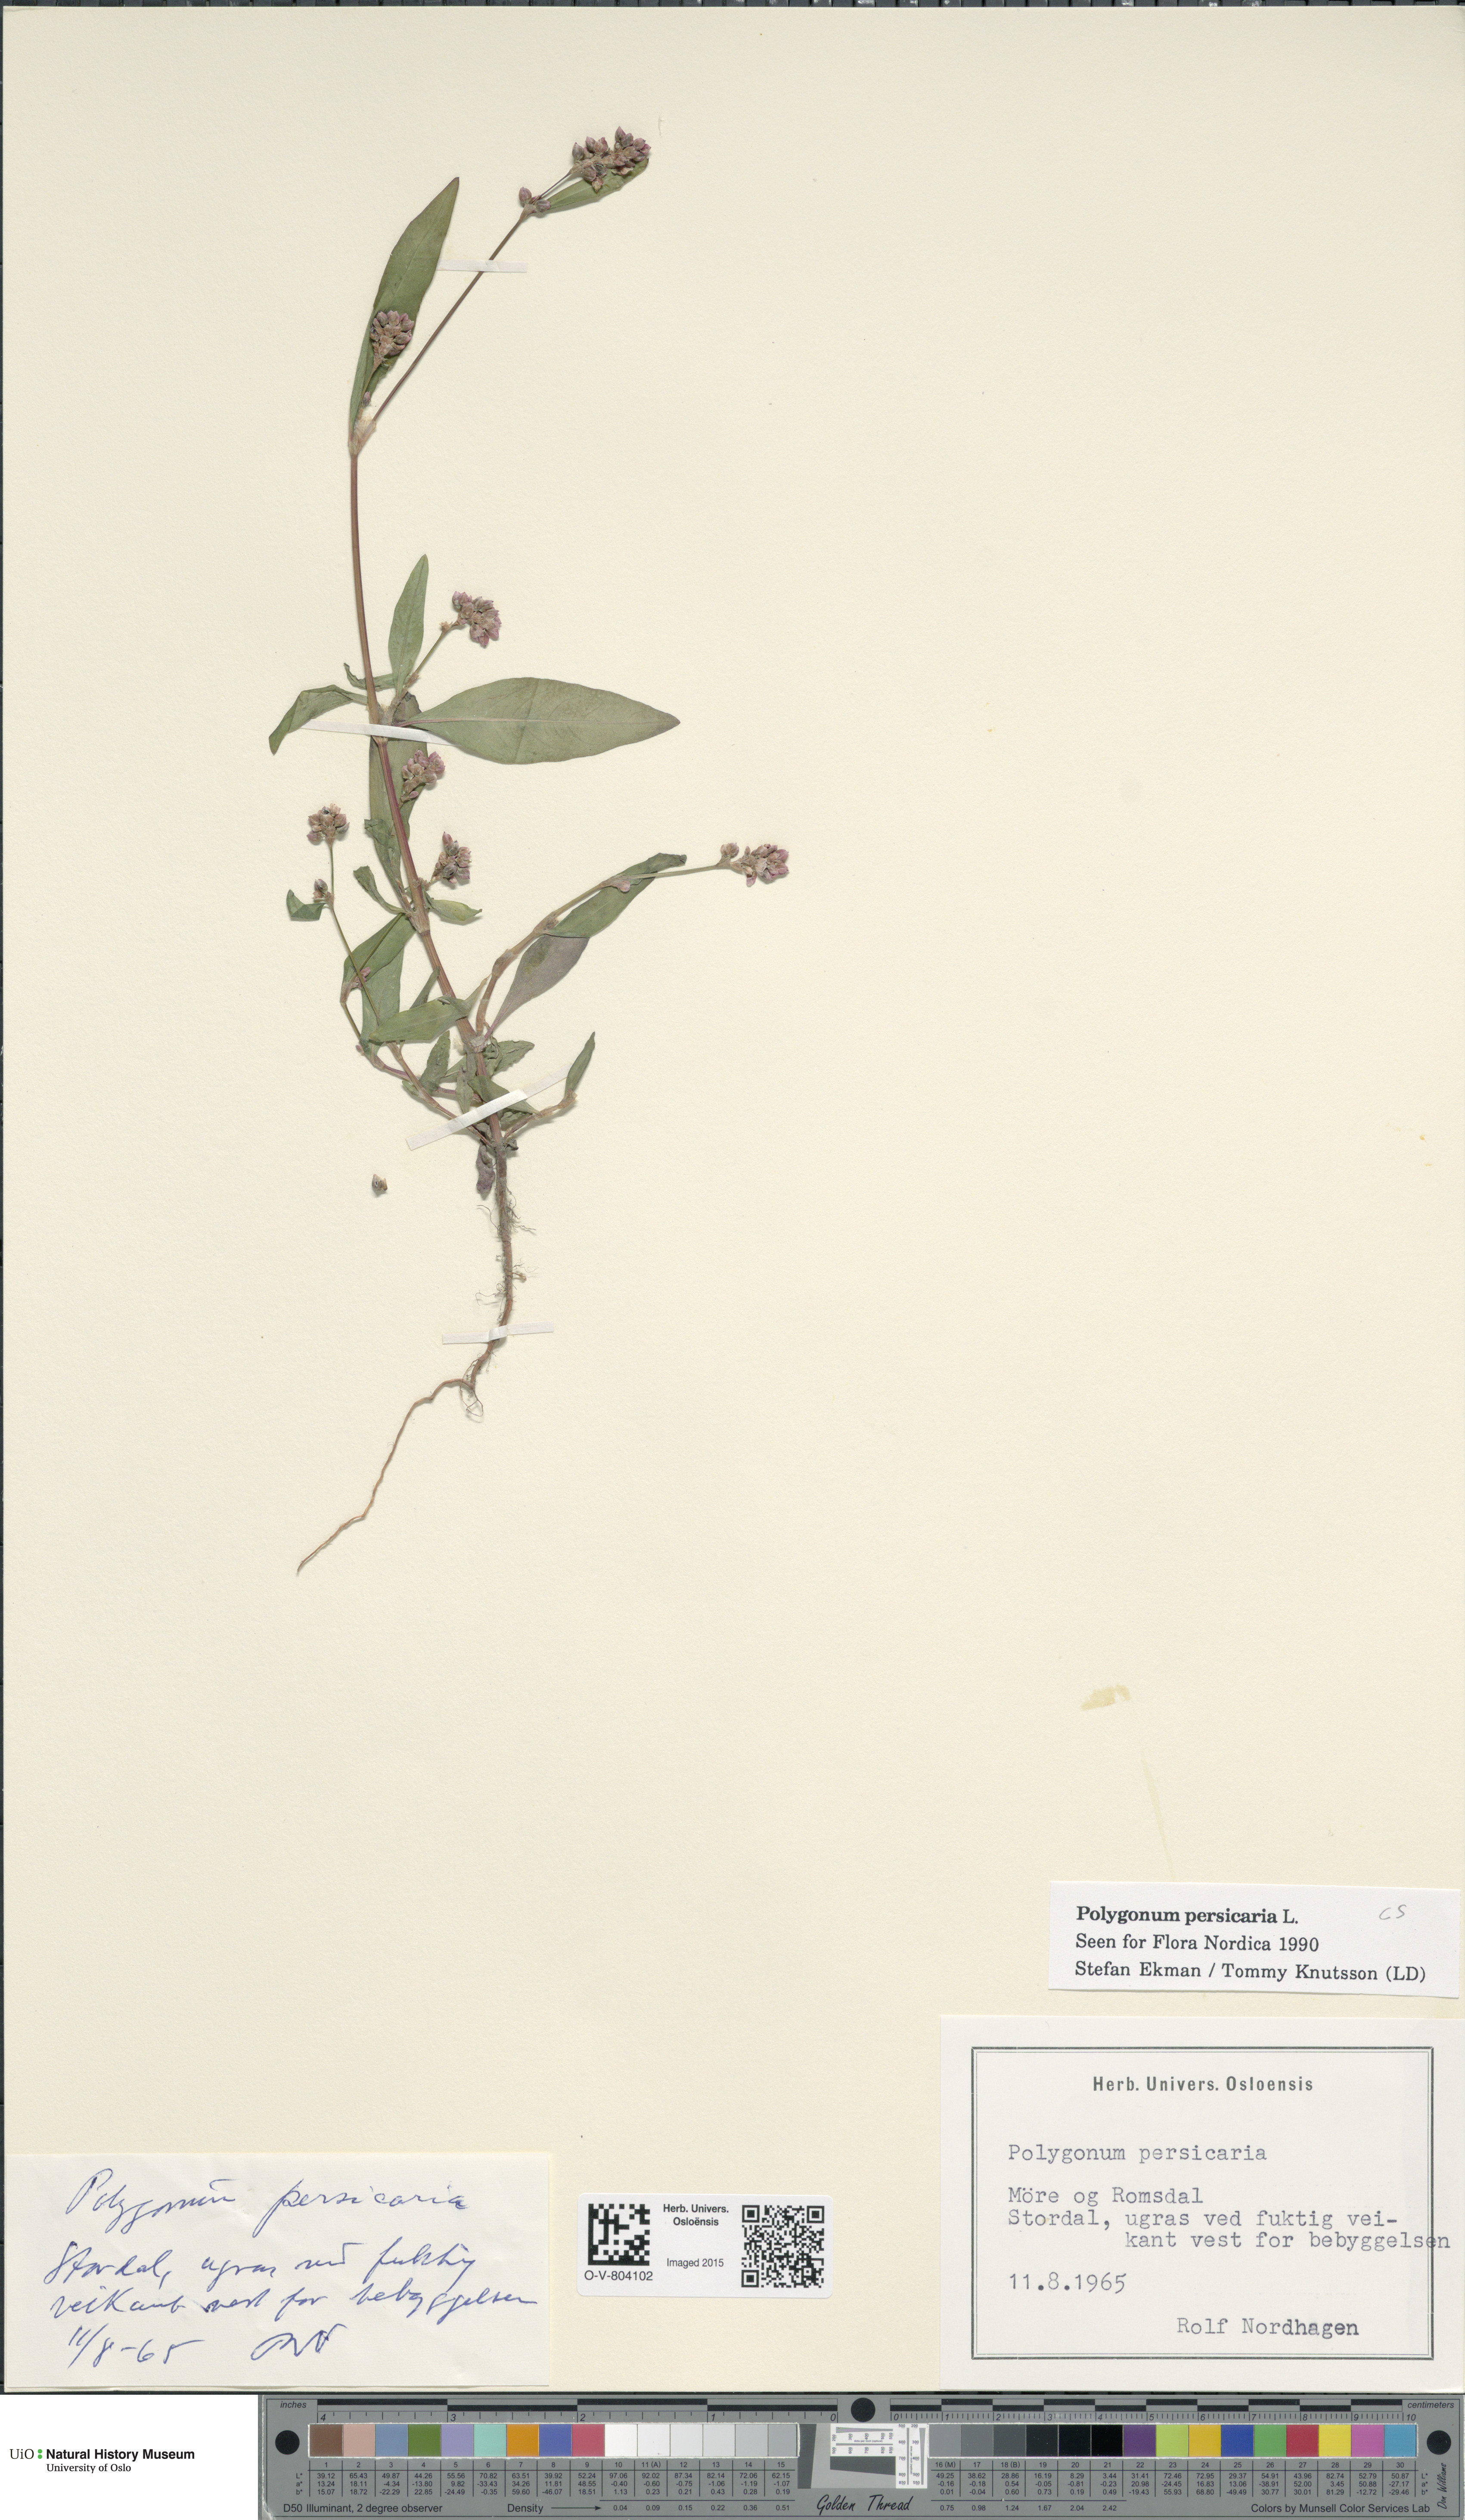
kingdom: Plantae
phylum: Tracheophyta
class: Magnoliopsida
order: Caryophyllales
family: Polygonaceae
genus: Persicaria
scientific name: Persicaria maculosa
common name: Redshank
